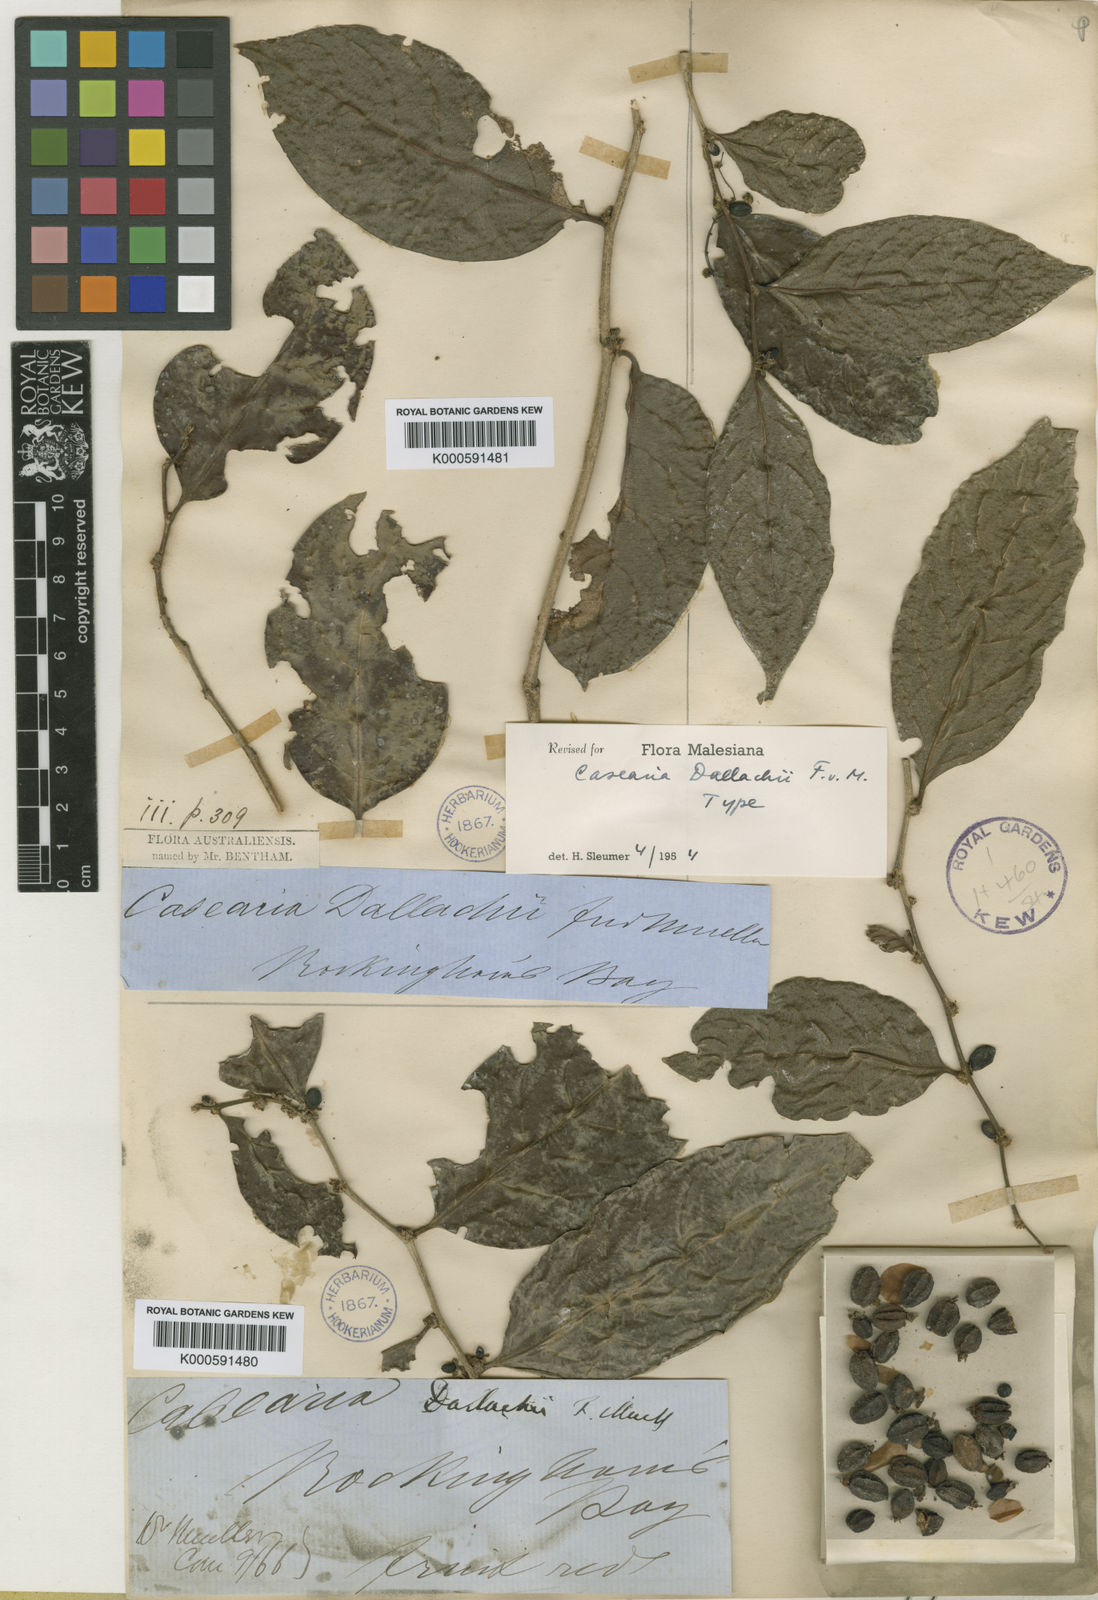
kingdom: Plantae
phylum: Tracheophyta
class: Magnoliopsida
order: Malpighiales
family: Salicaceae
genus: Casearia
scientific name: Casearia dallachyi
